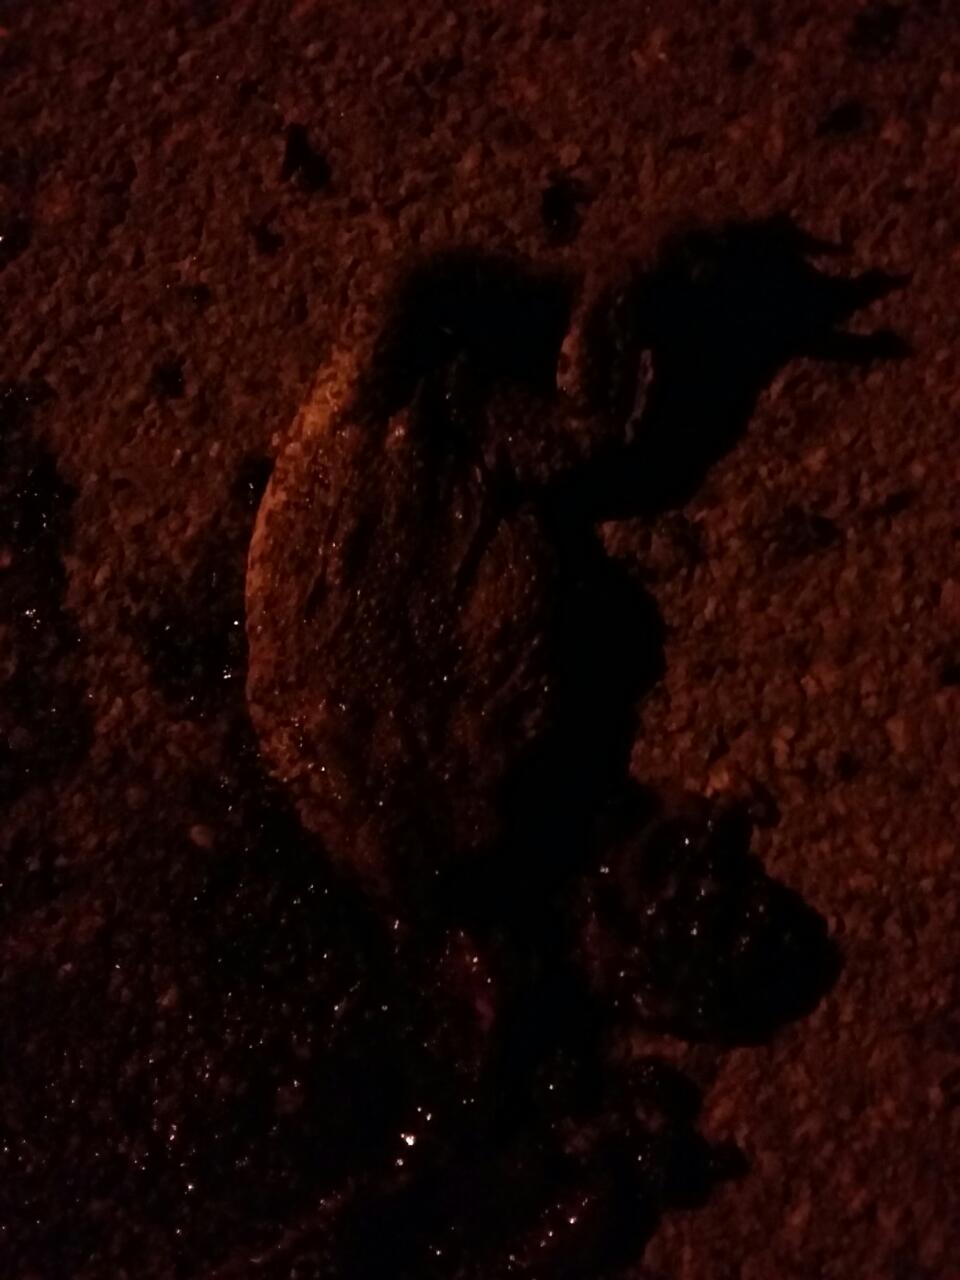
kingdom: Animalia
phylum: Chordata
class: Amphibia
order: Anura
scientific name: Anura
